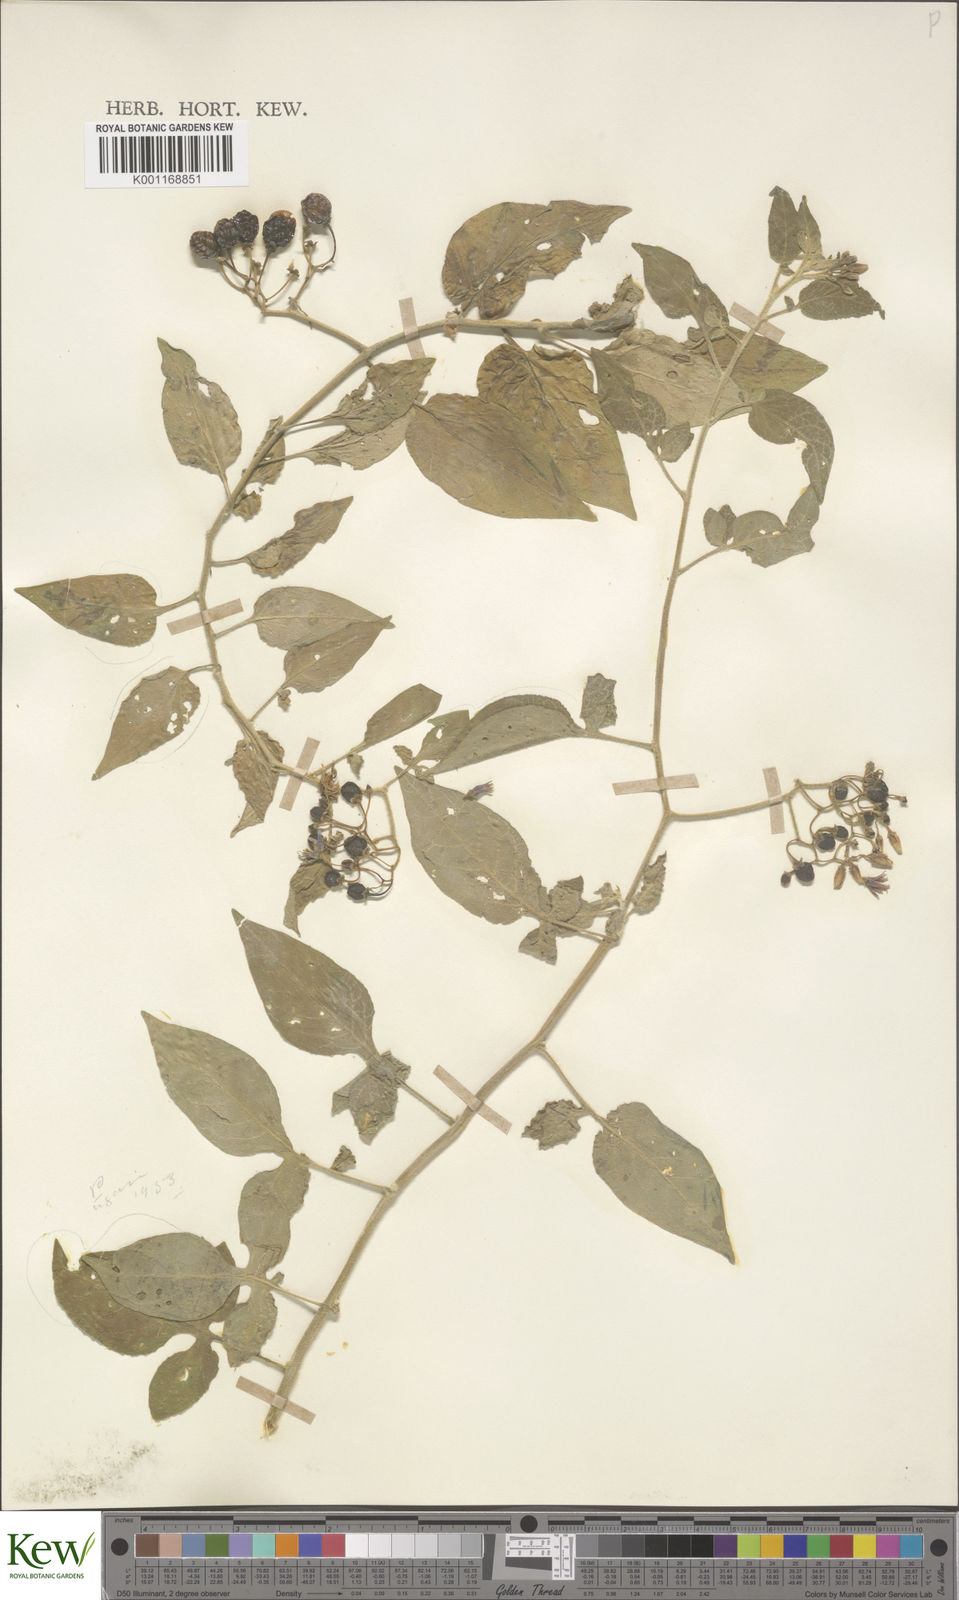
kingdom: Plantae
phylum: Tracheophyta
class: Magnoliopsida
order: Solanales
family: Solanaceae
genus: Solanum
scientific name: Solanum dulcamara
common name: Climbing nightshade
